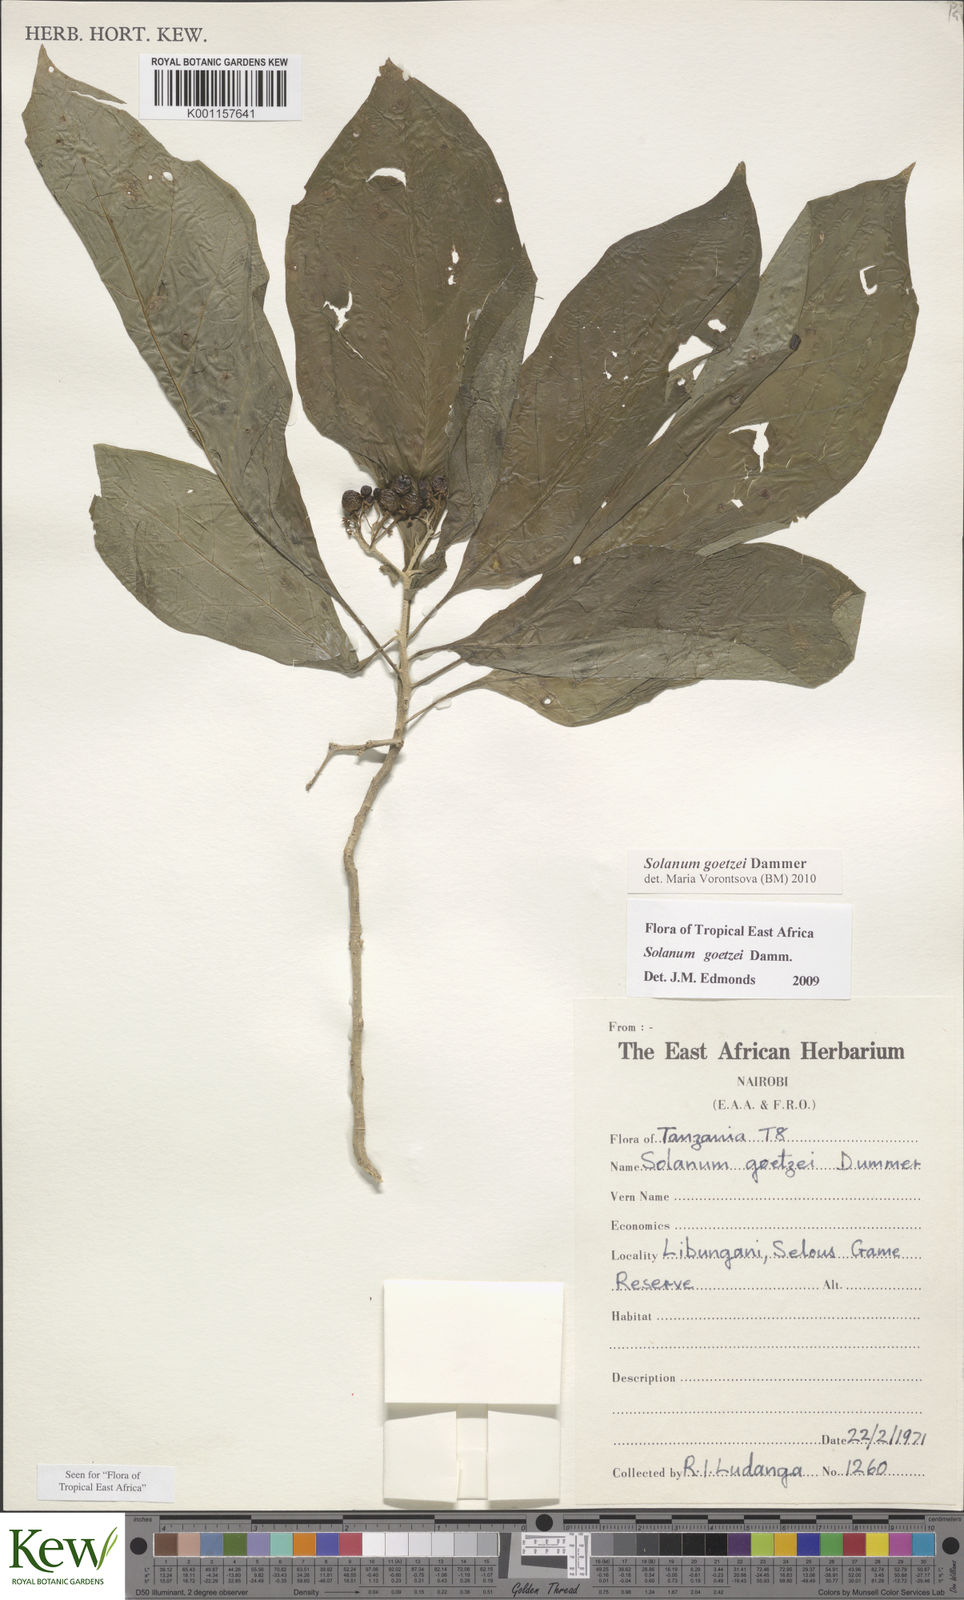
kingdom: Plantae
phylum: Tracheophyta
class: Magnoliopsida
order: Solanales
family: Solanaceae
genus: Solanum
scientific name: Solanum goetzei
